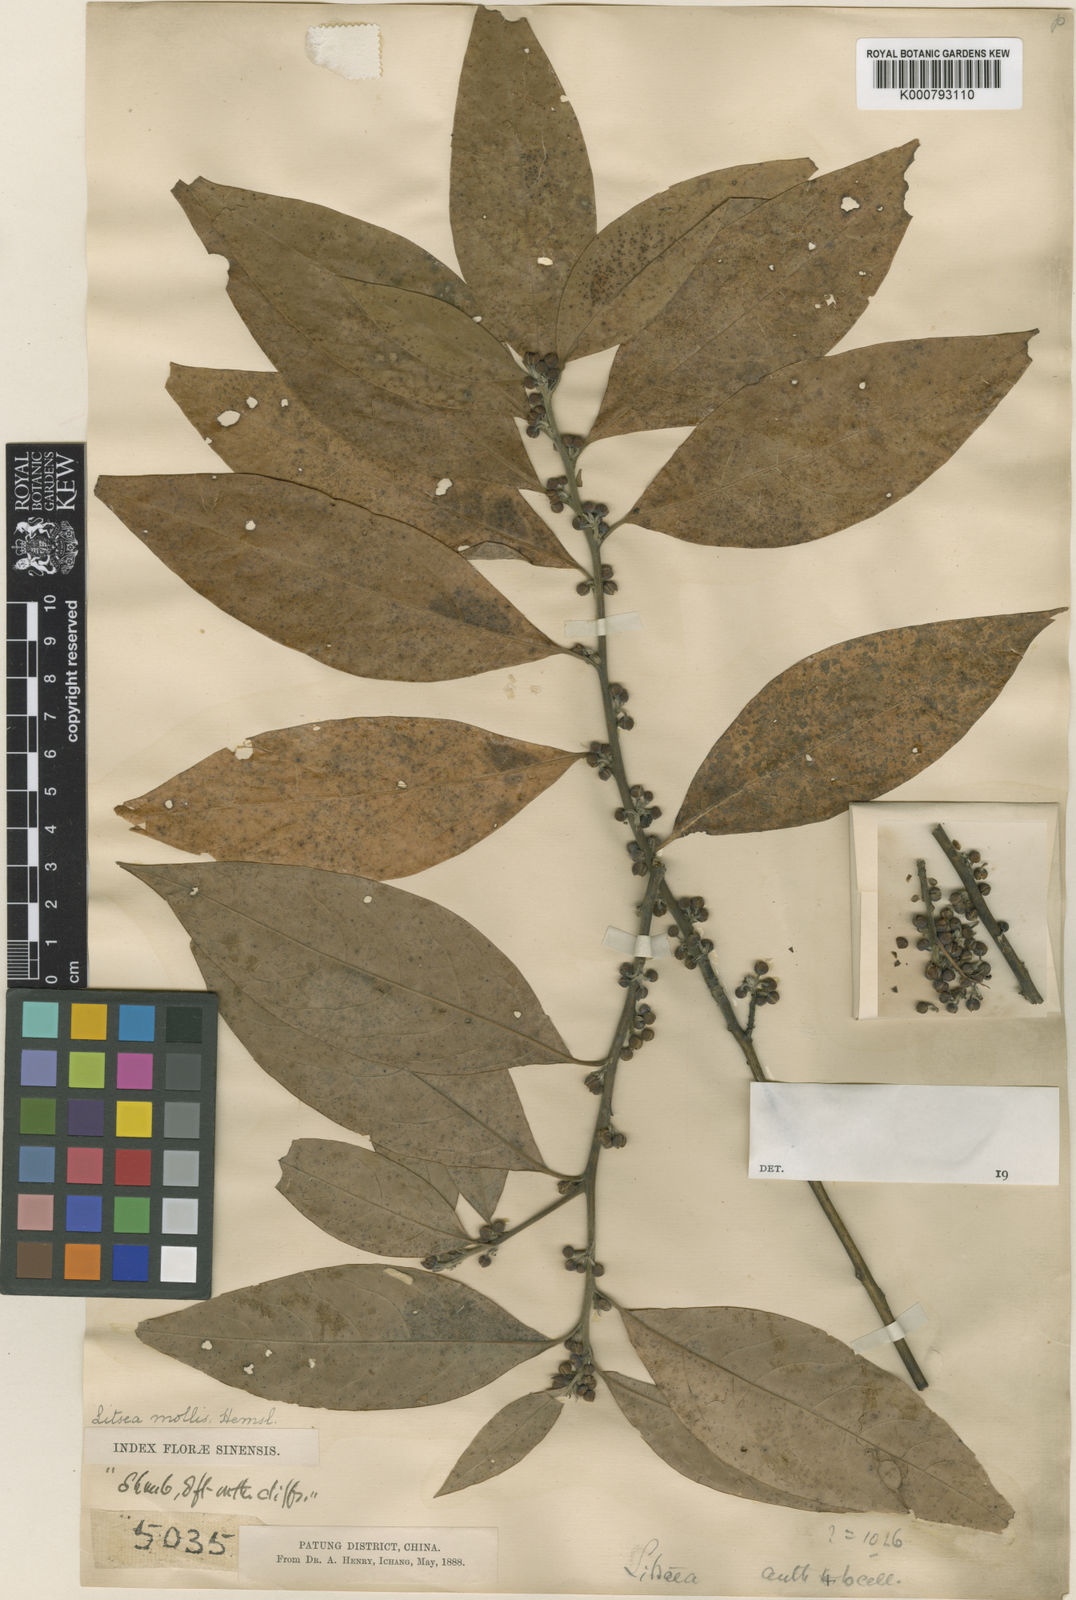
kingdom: Plantae
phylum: Tracheophyta
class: Magnoliopsida
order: Laurales
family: Lauraceae
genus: Litsea
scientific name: Litsea euosma
